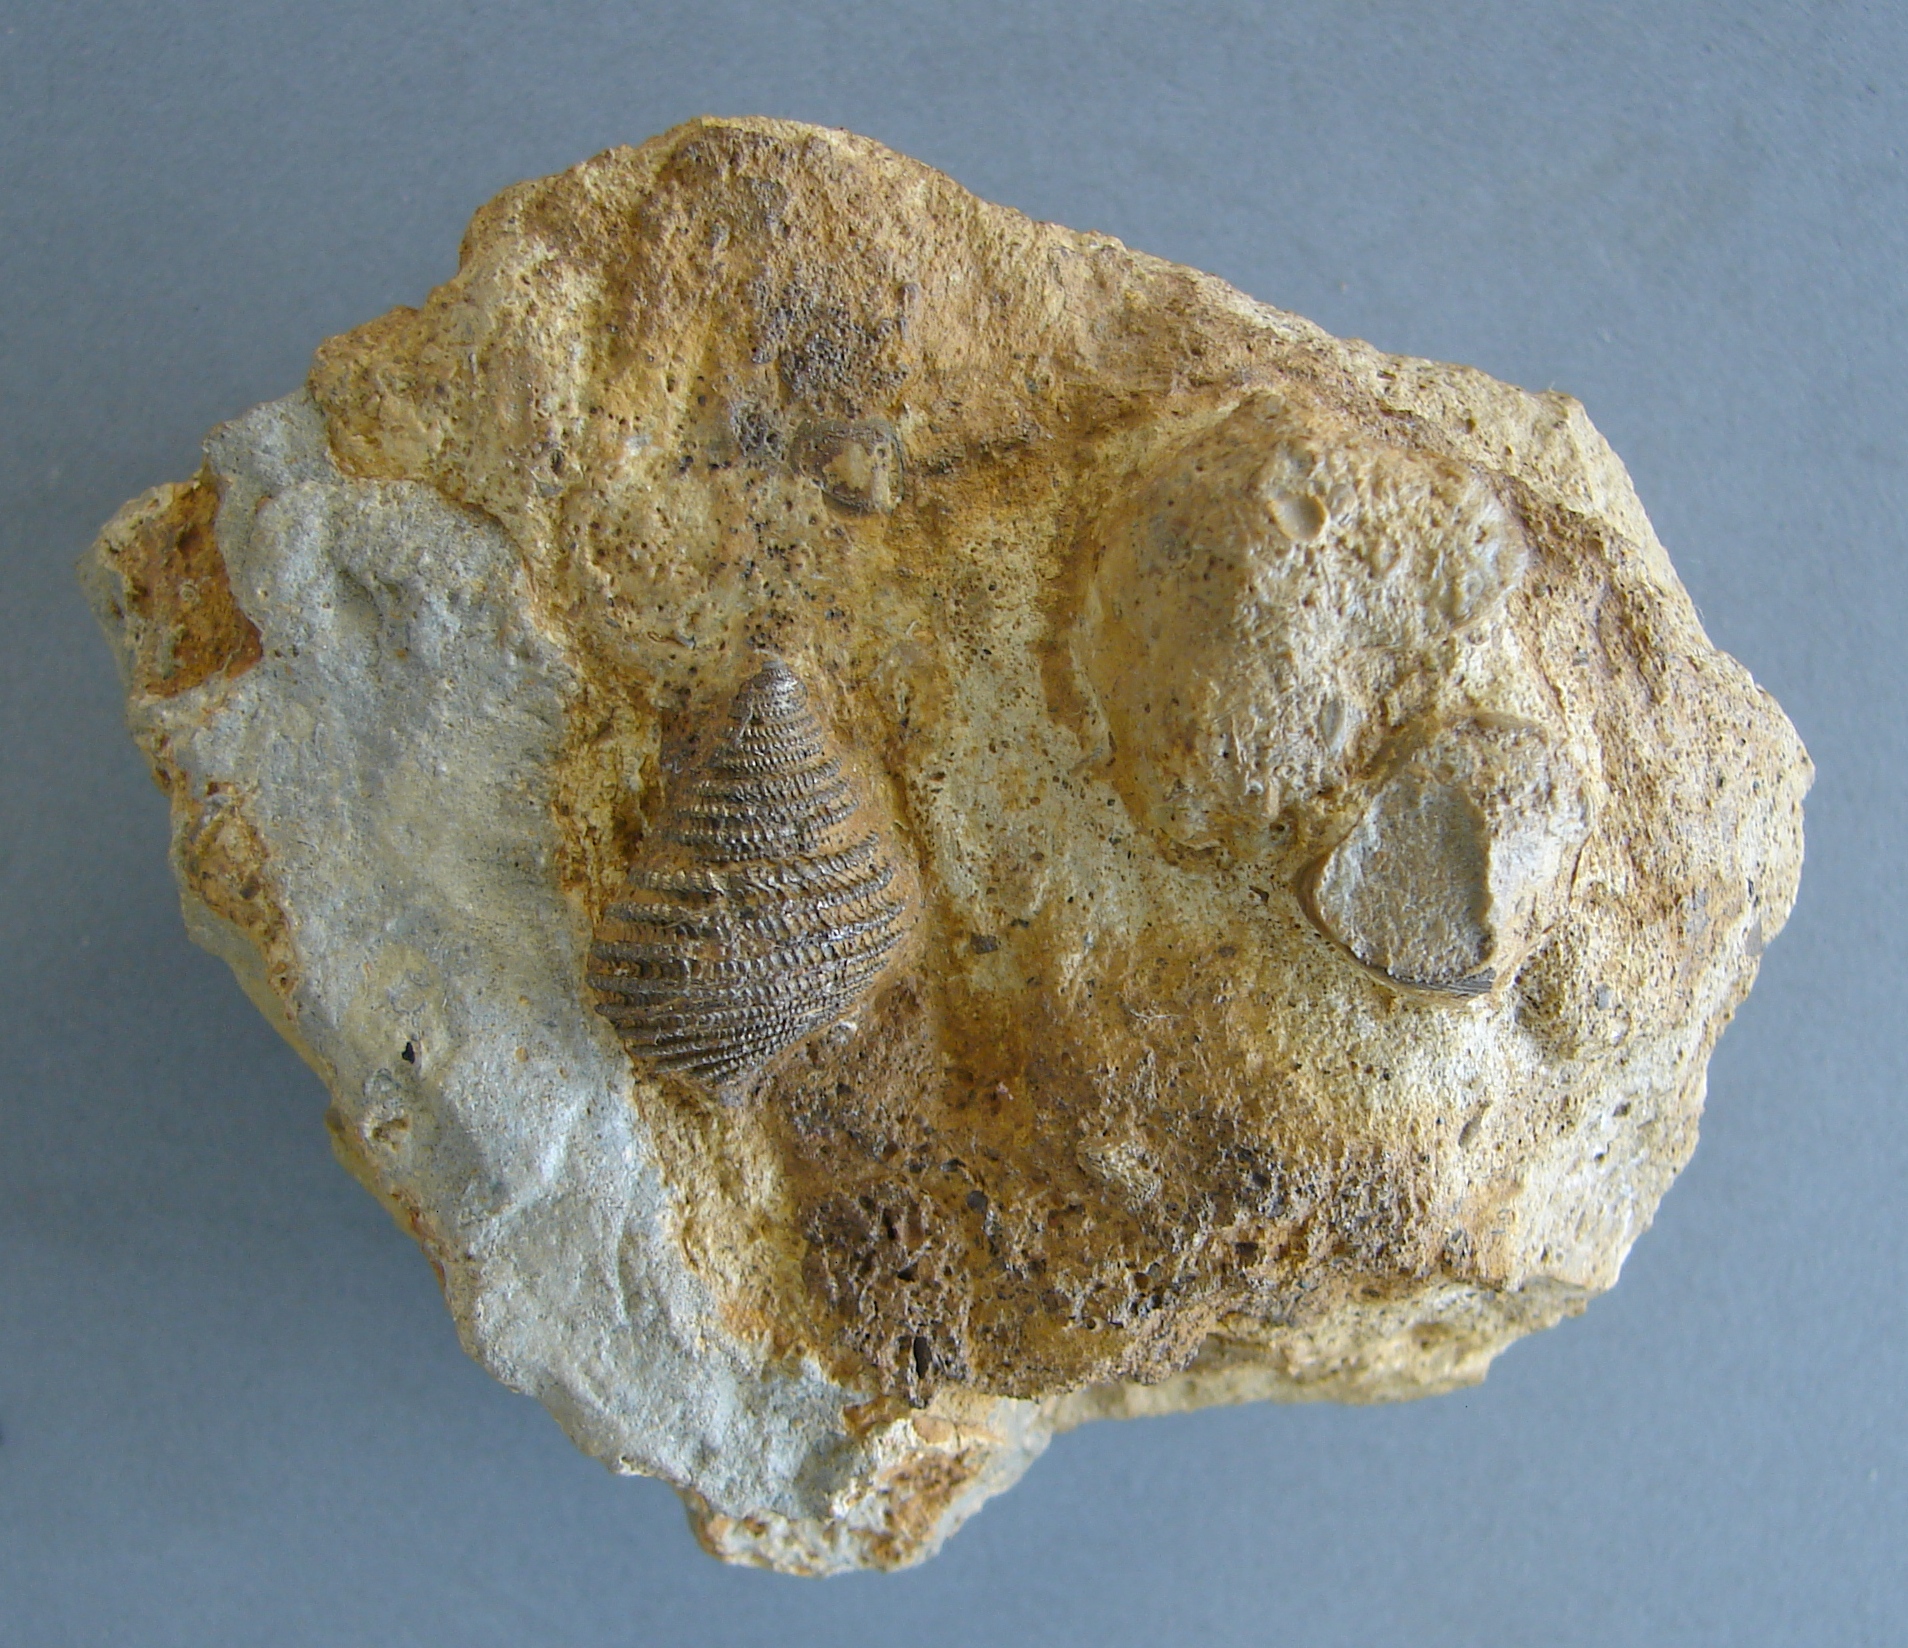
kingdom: Animalia
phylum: Mollusca
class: Gastropoda
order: Seguenziida
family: Eucyclidae
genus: Ooliticia
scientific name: Ooliticia
